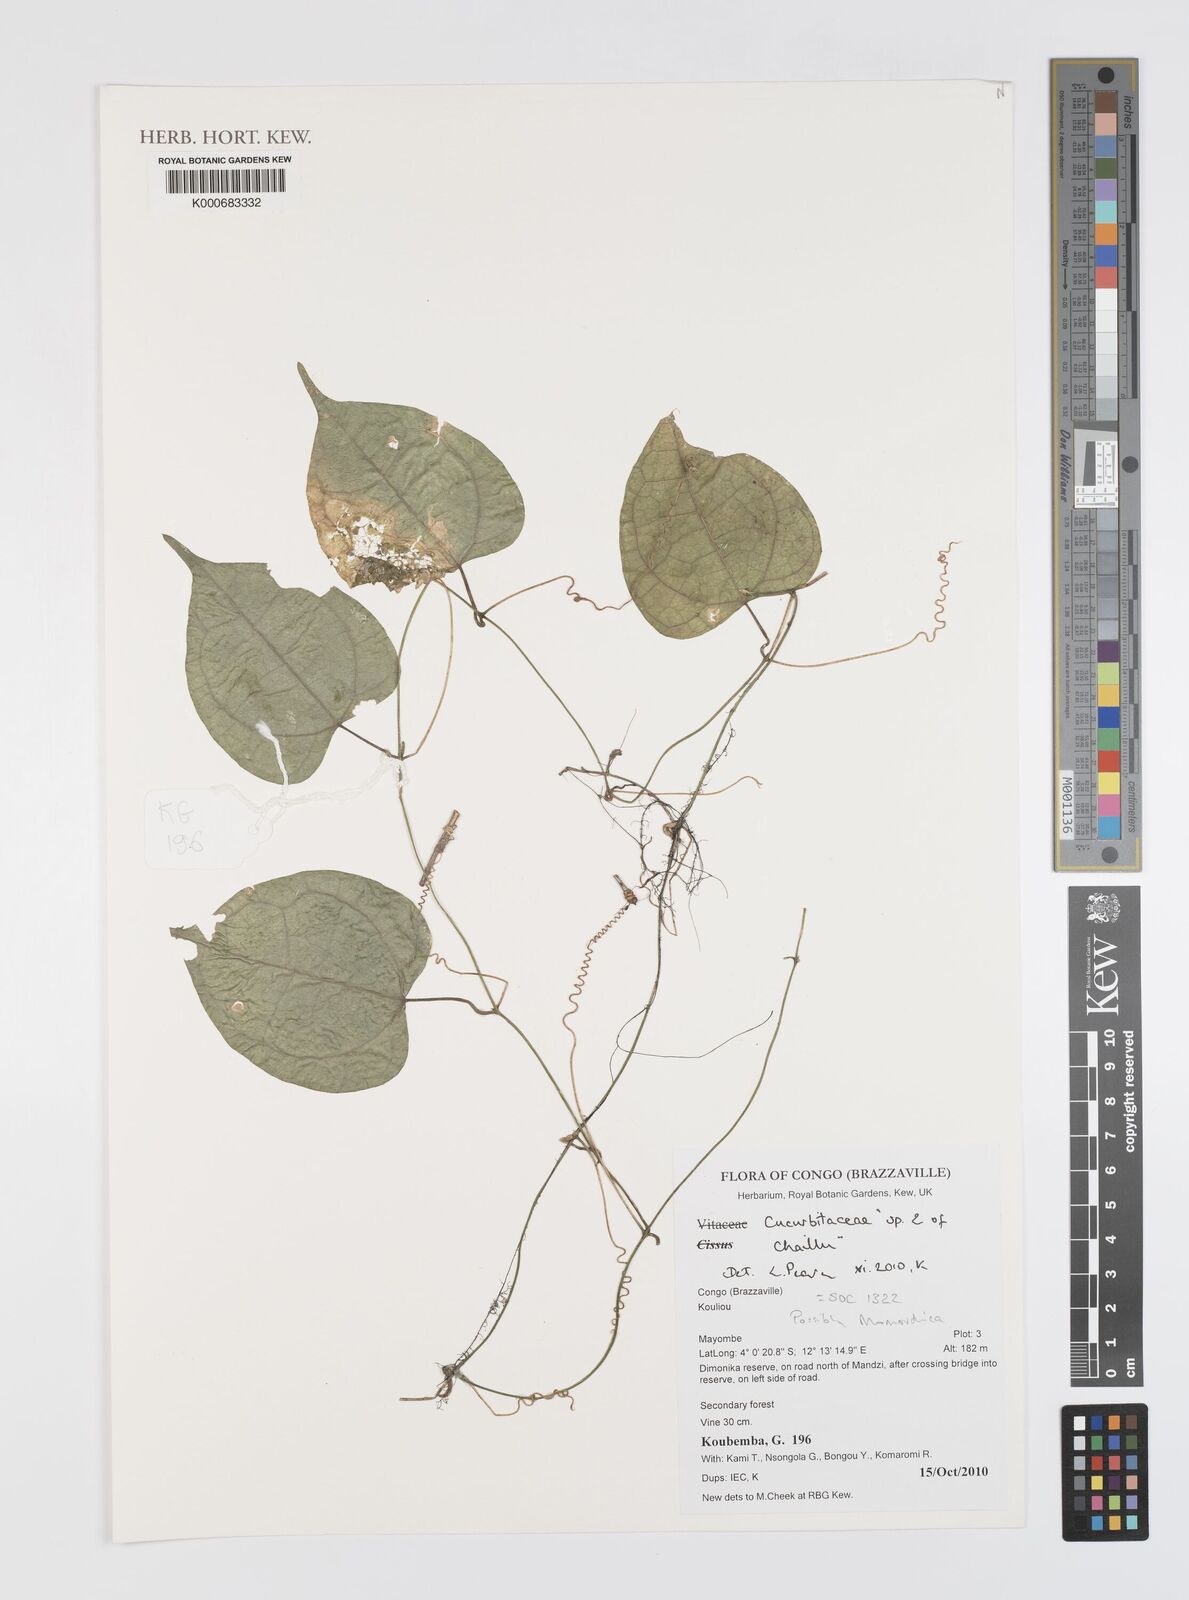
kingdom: Plantae
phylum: Tracheophyta
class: Magnoliopsida
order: Cucurbitales
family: Cucurbitaceae
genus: Momordica
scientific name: Momordica
